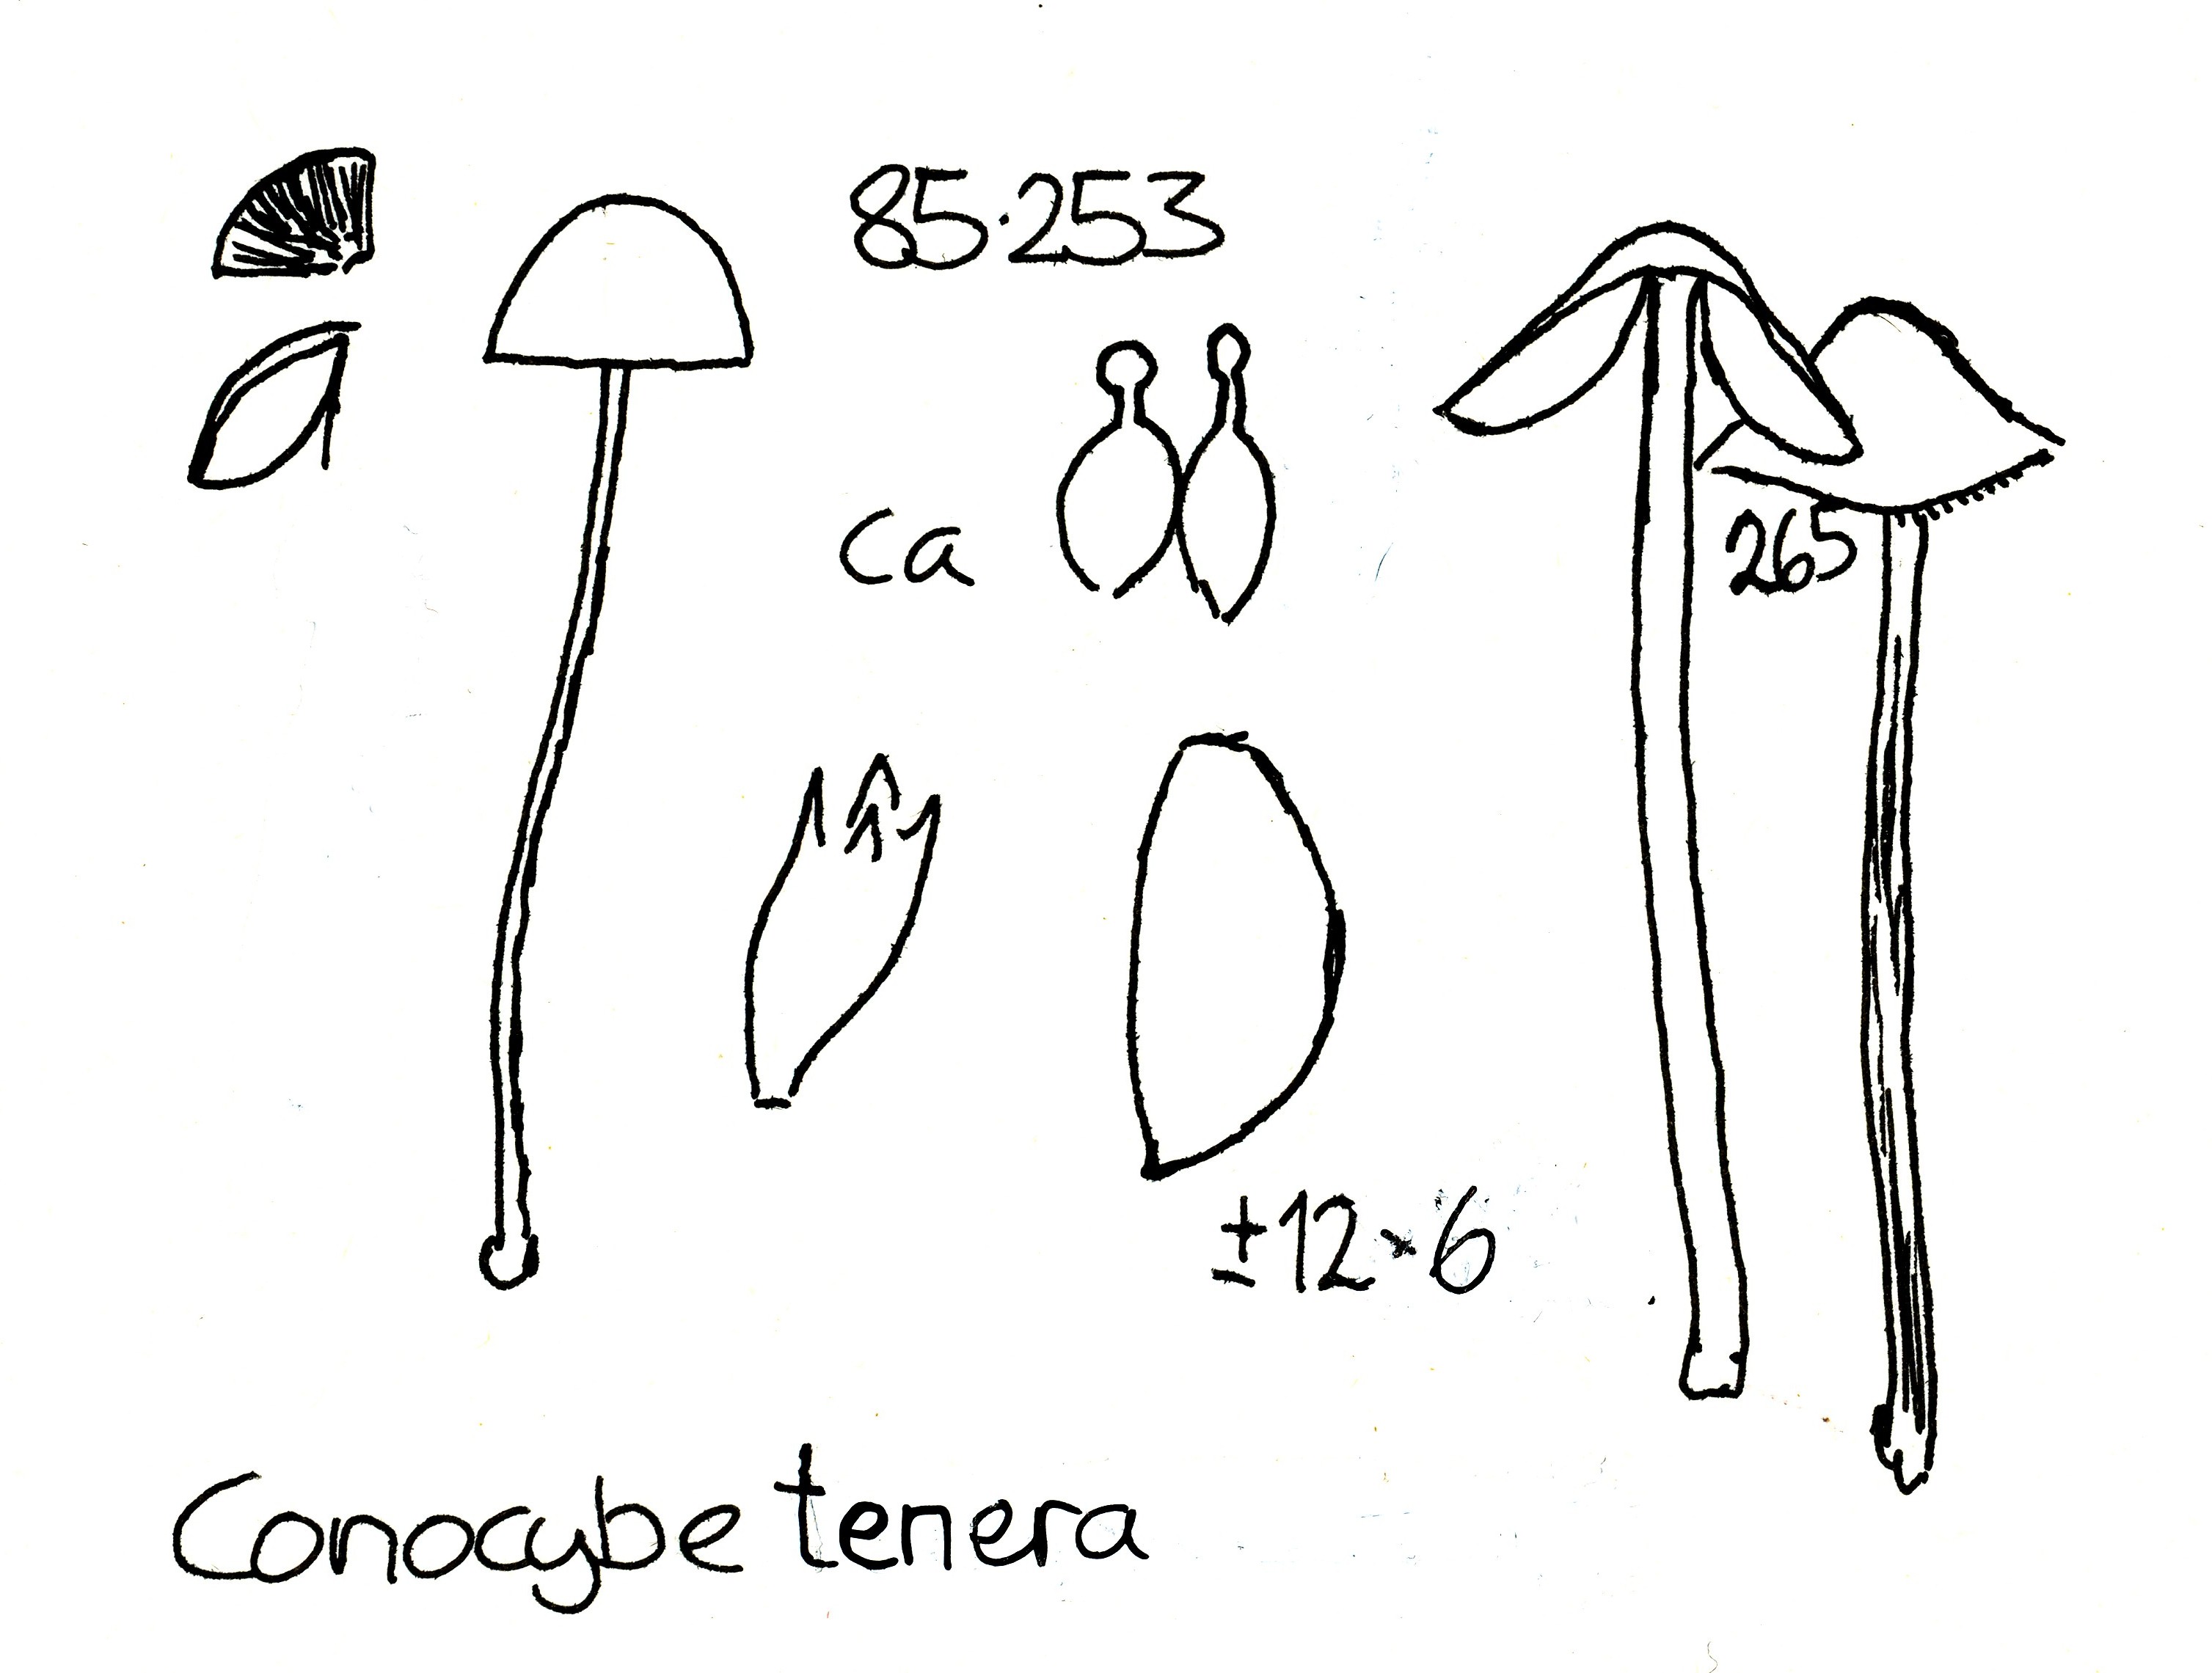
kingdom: Fungi
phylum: Basidiomycota
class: Agaricomycetes
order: Agaricales
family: Bolbitiaceae
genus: Conocybe
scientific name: Conocybe semiglobata
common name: halvkugleformet keglehat
